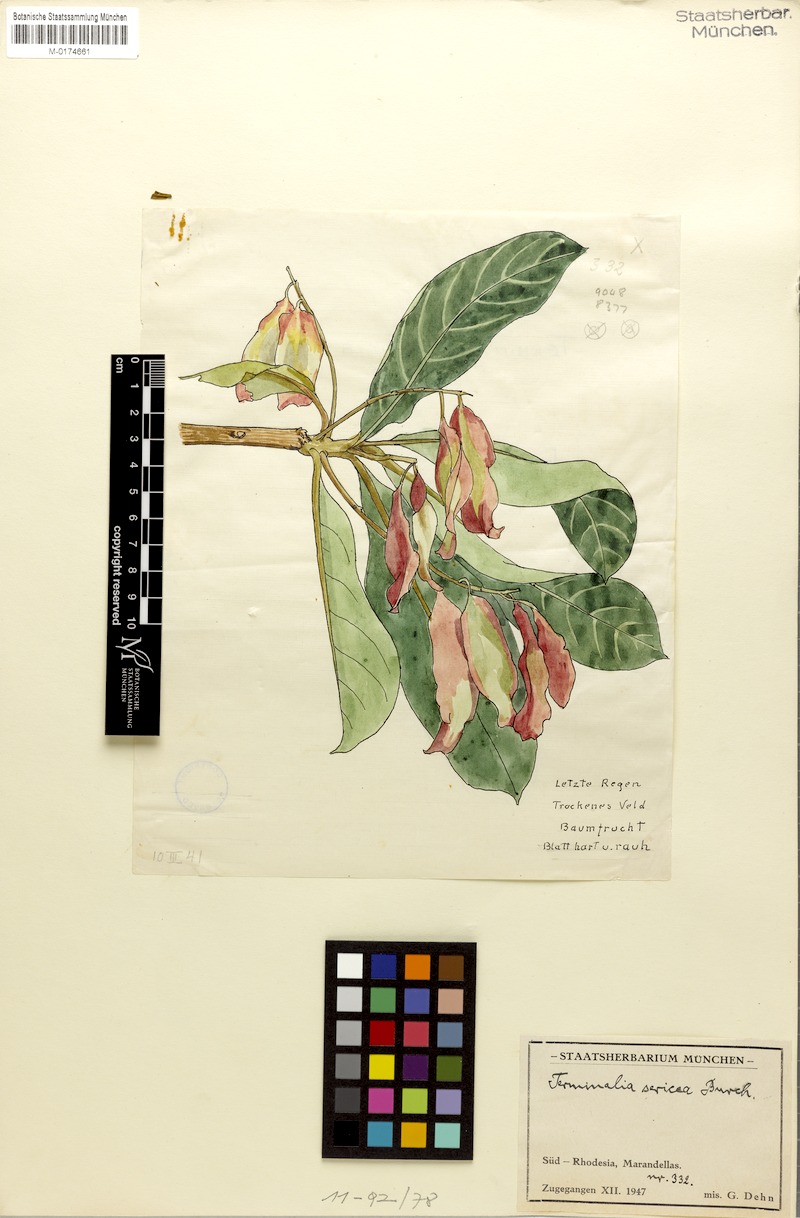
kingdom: Plantae
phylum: Tracheophyta
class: Magnoliopsida
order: Myrtales
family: Combretaceae
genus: Terminalia
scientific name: Terminalia sericea
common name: Clusterleaf
